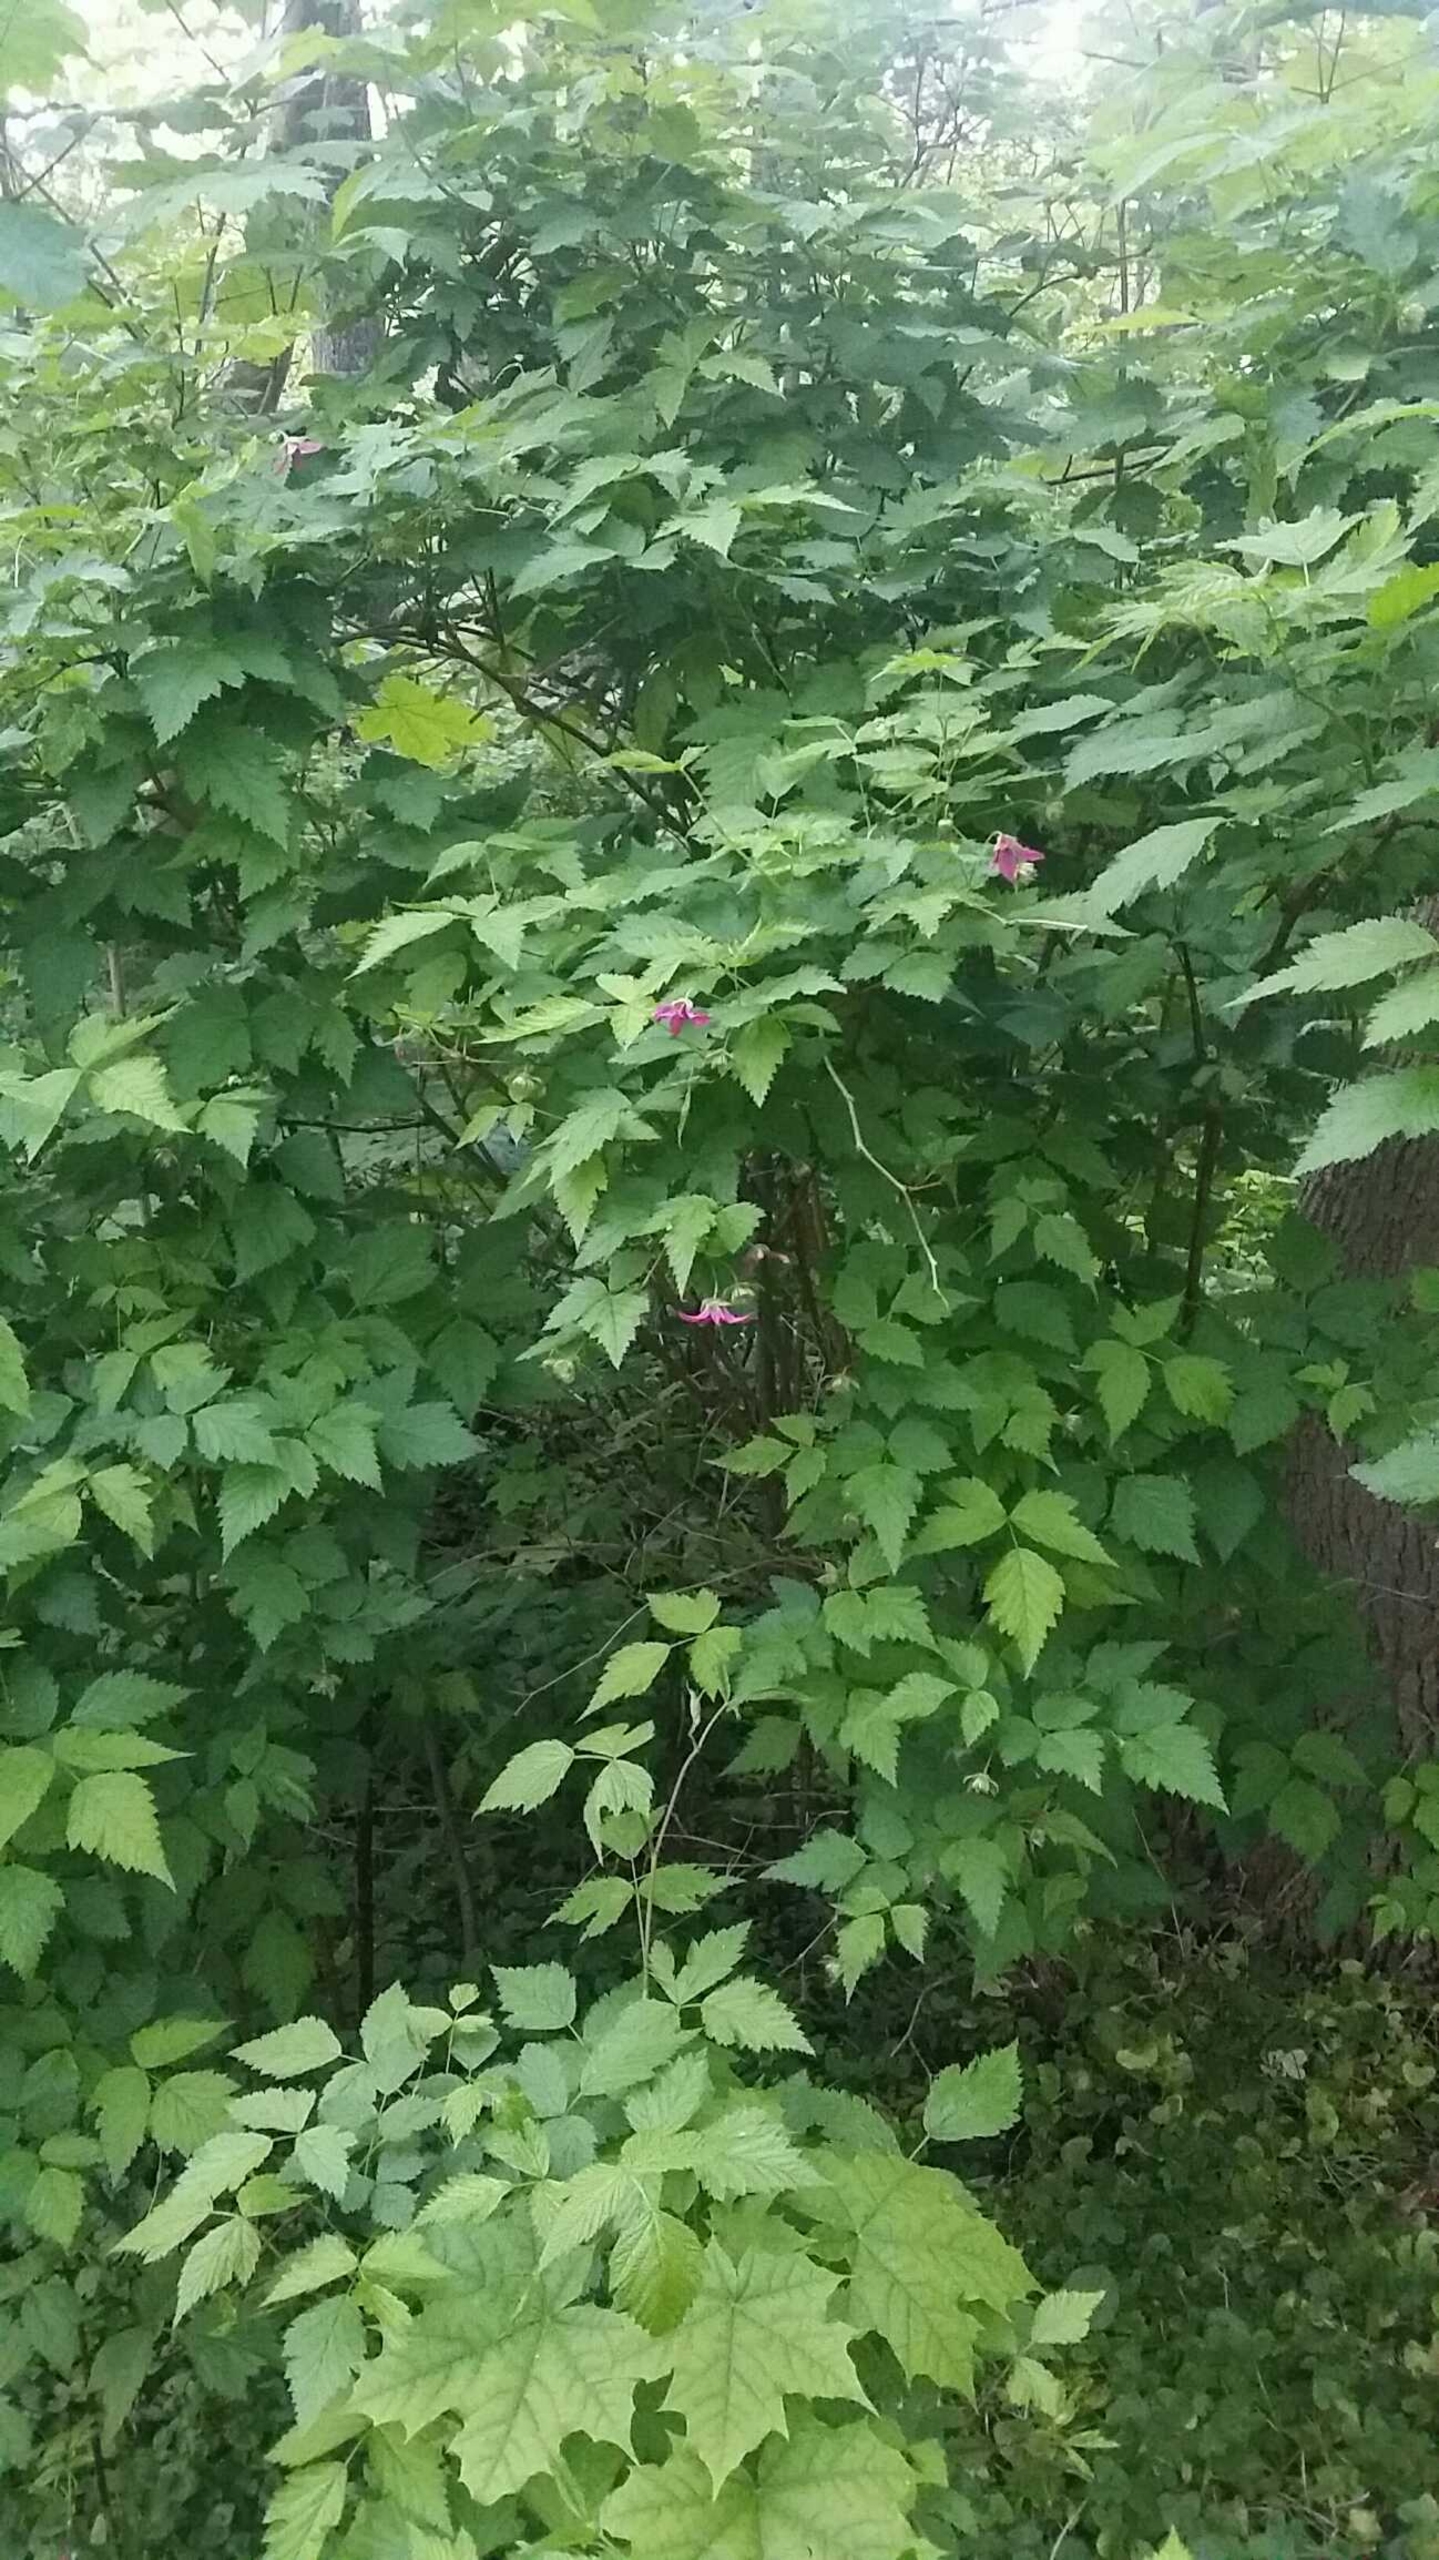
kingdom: Plantae
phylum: Tracheophyta
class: Magnoliopsida
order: Rosales
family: Rosaceae
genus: Rubus
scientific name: Rubus spectabilis
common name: Laksebær
